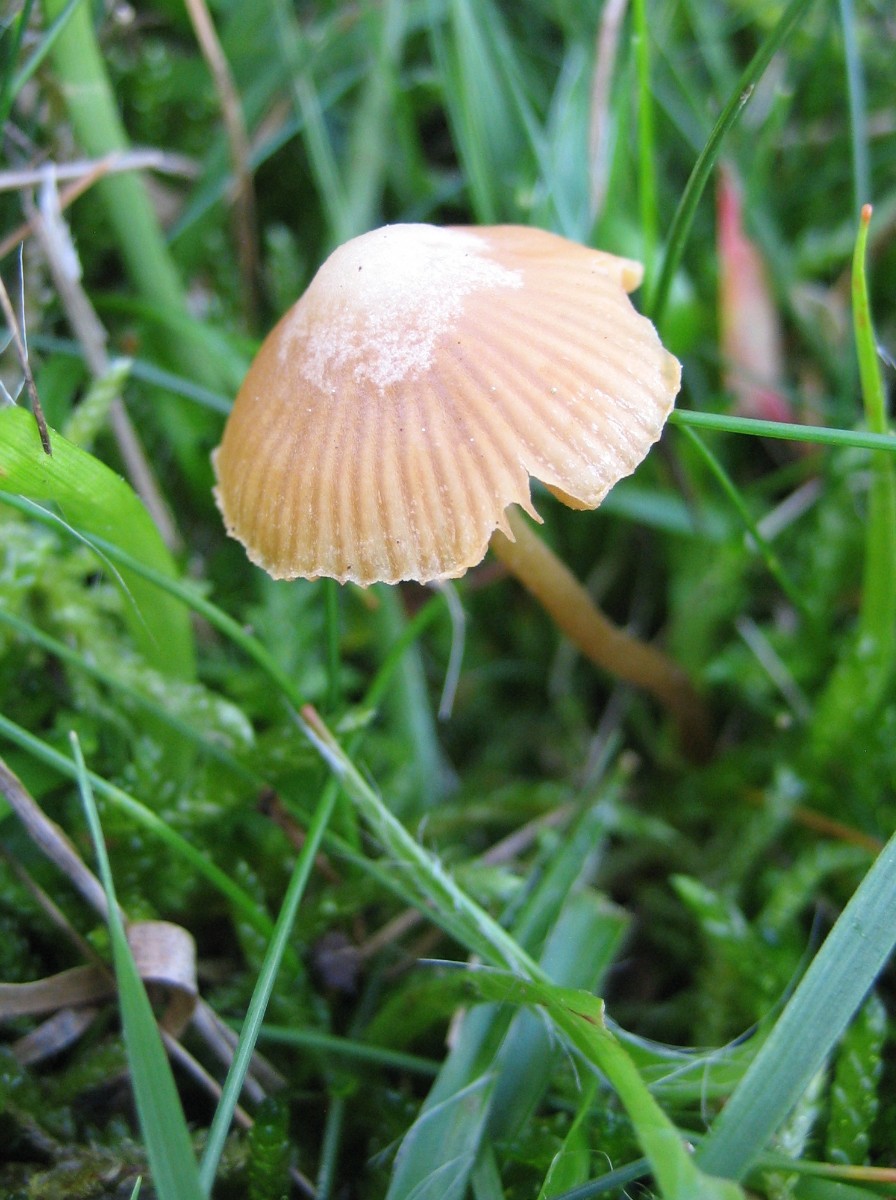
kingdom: Fungi
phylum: Basidiomycota
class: Agaricomycetes
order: Agaricales
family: Hymenogastraceae
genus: Galerina
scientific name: Galerina
